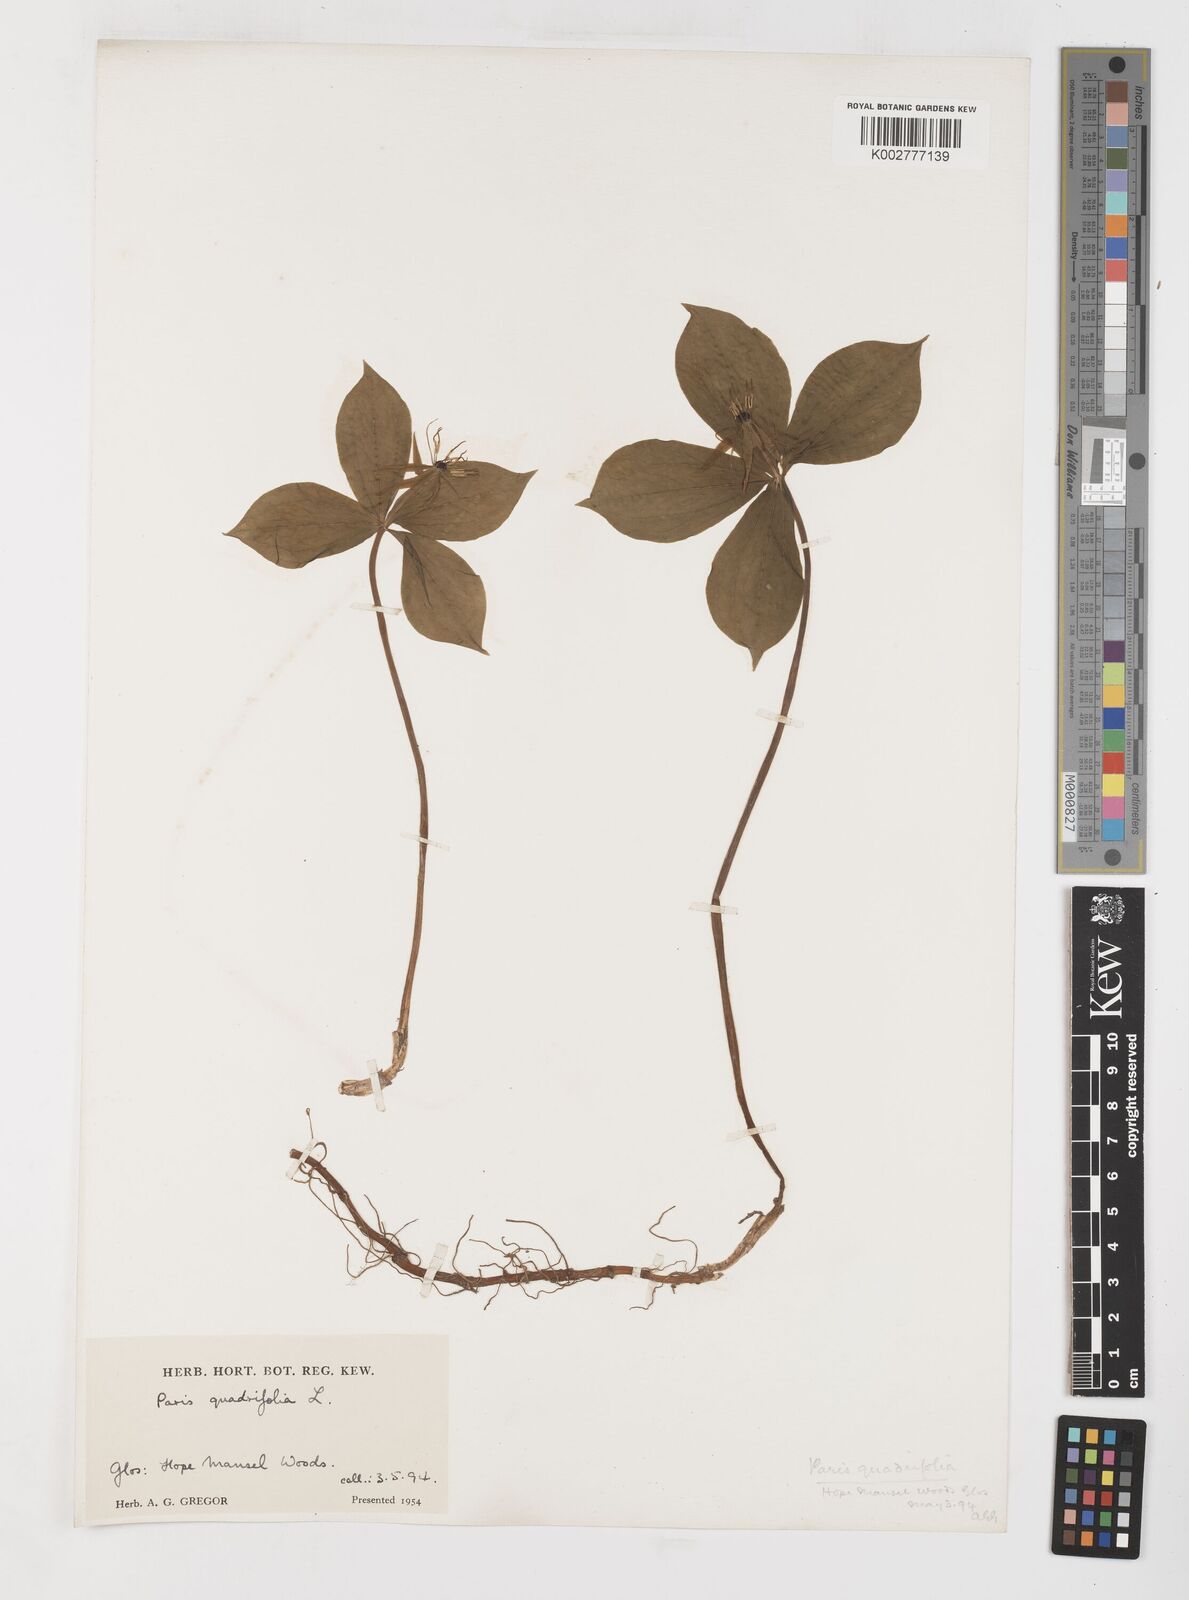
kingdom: Plantae
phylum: Tracheophyta
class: Liliopsida
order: Liliales
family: Melanthiaceae
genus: Paris
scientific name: Paris quadrifolia
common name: Herb-paris
